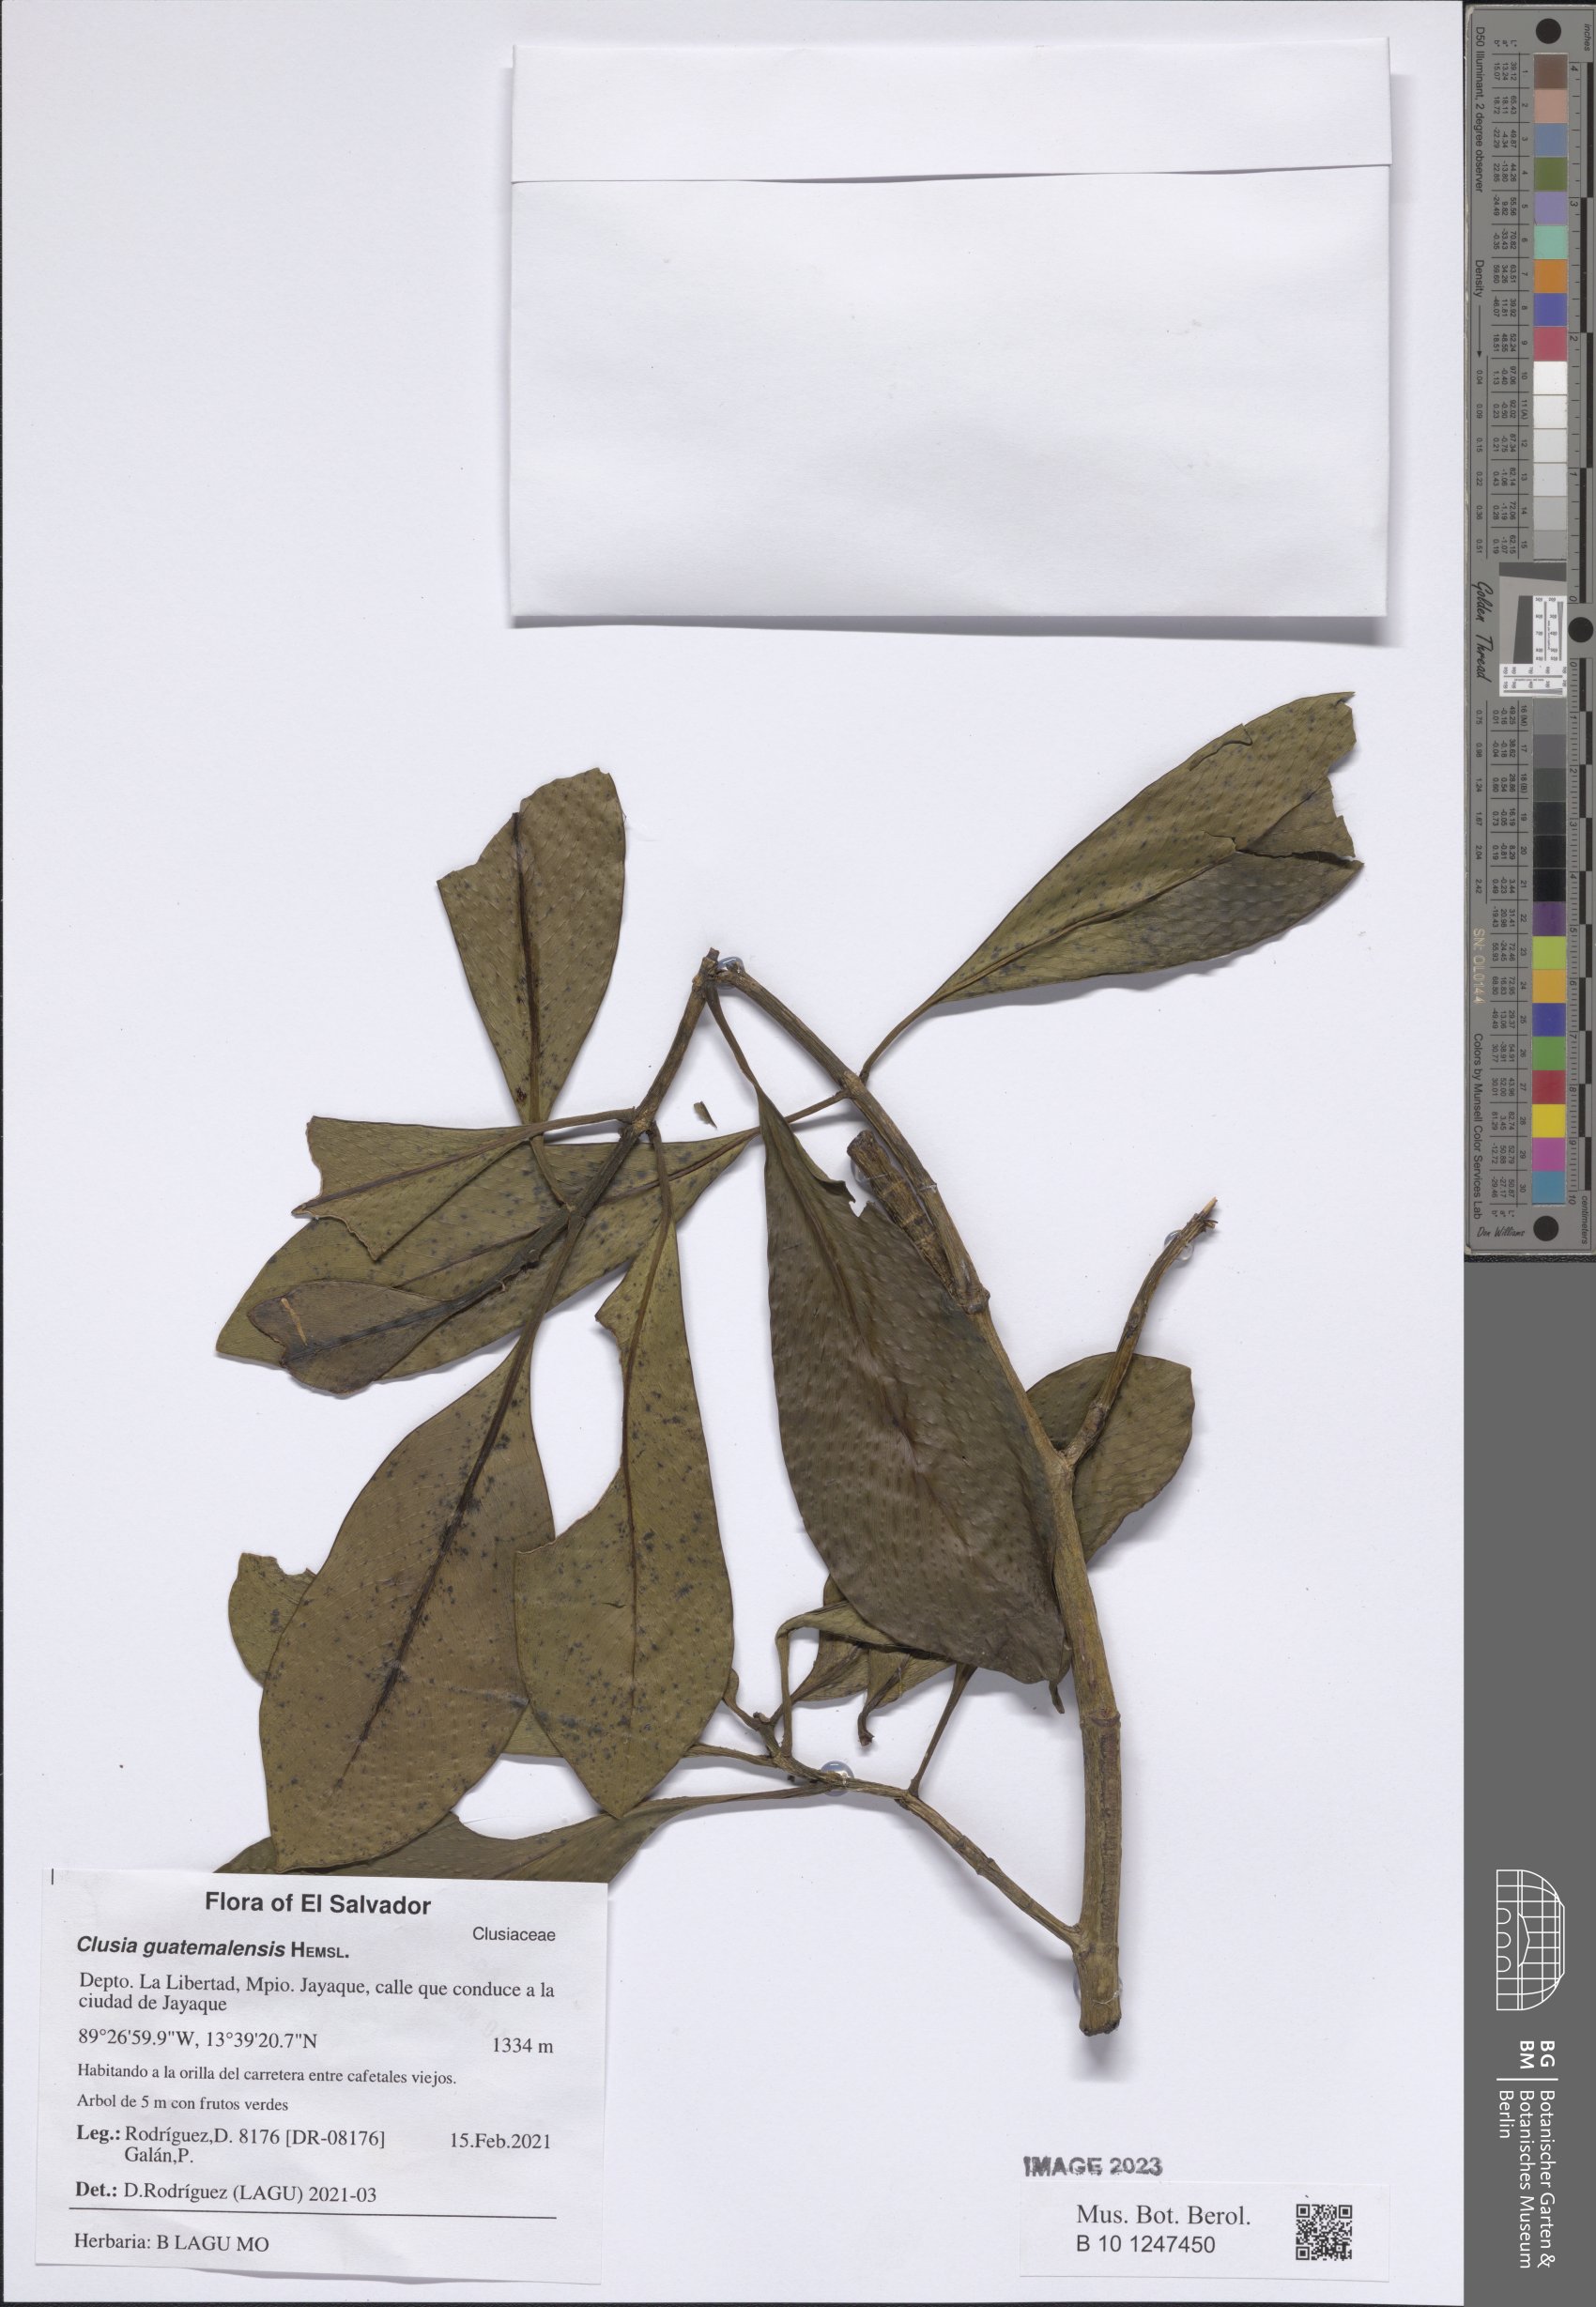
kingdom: Plantae
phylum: Tracheophyta
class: Magnoliopsida
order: Malpighiales
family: Clusiaceae
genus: Clusia
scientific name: Clusia guatemalensis
